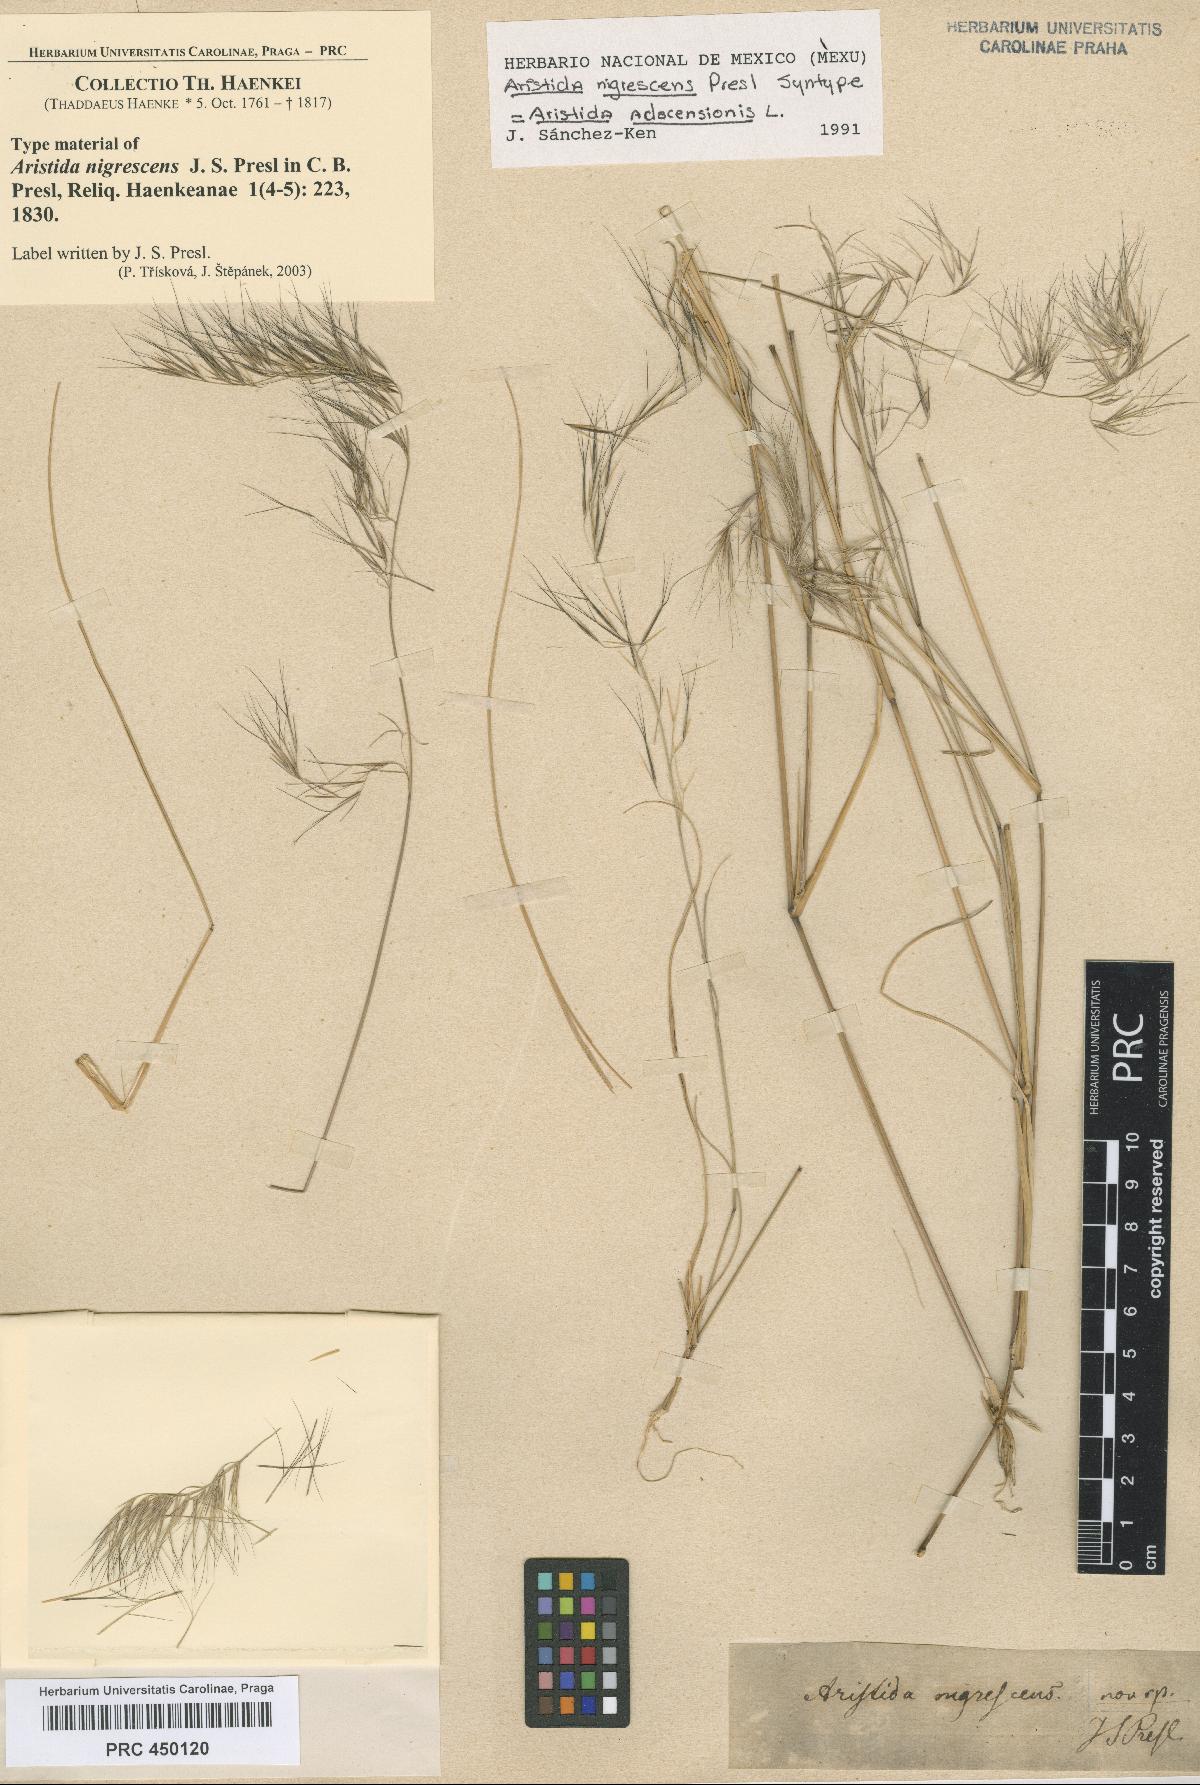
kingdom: Plantae
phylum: Tracheophyta
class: Liliopsida
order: Poales
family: Poaceae
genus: Aristida
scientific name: Aristida adscensionis
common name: Sixweeks threeawn
